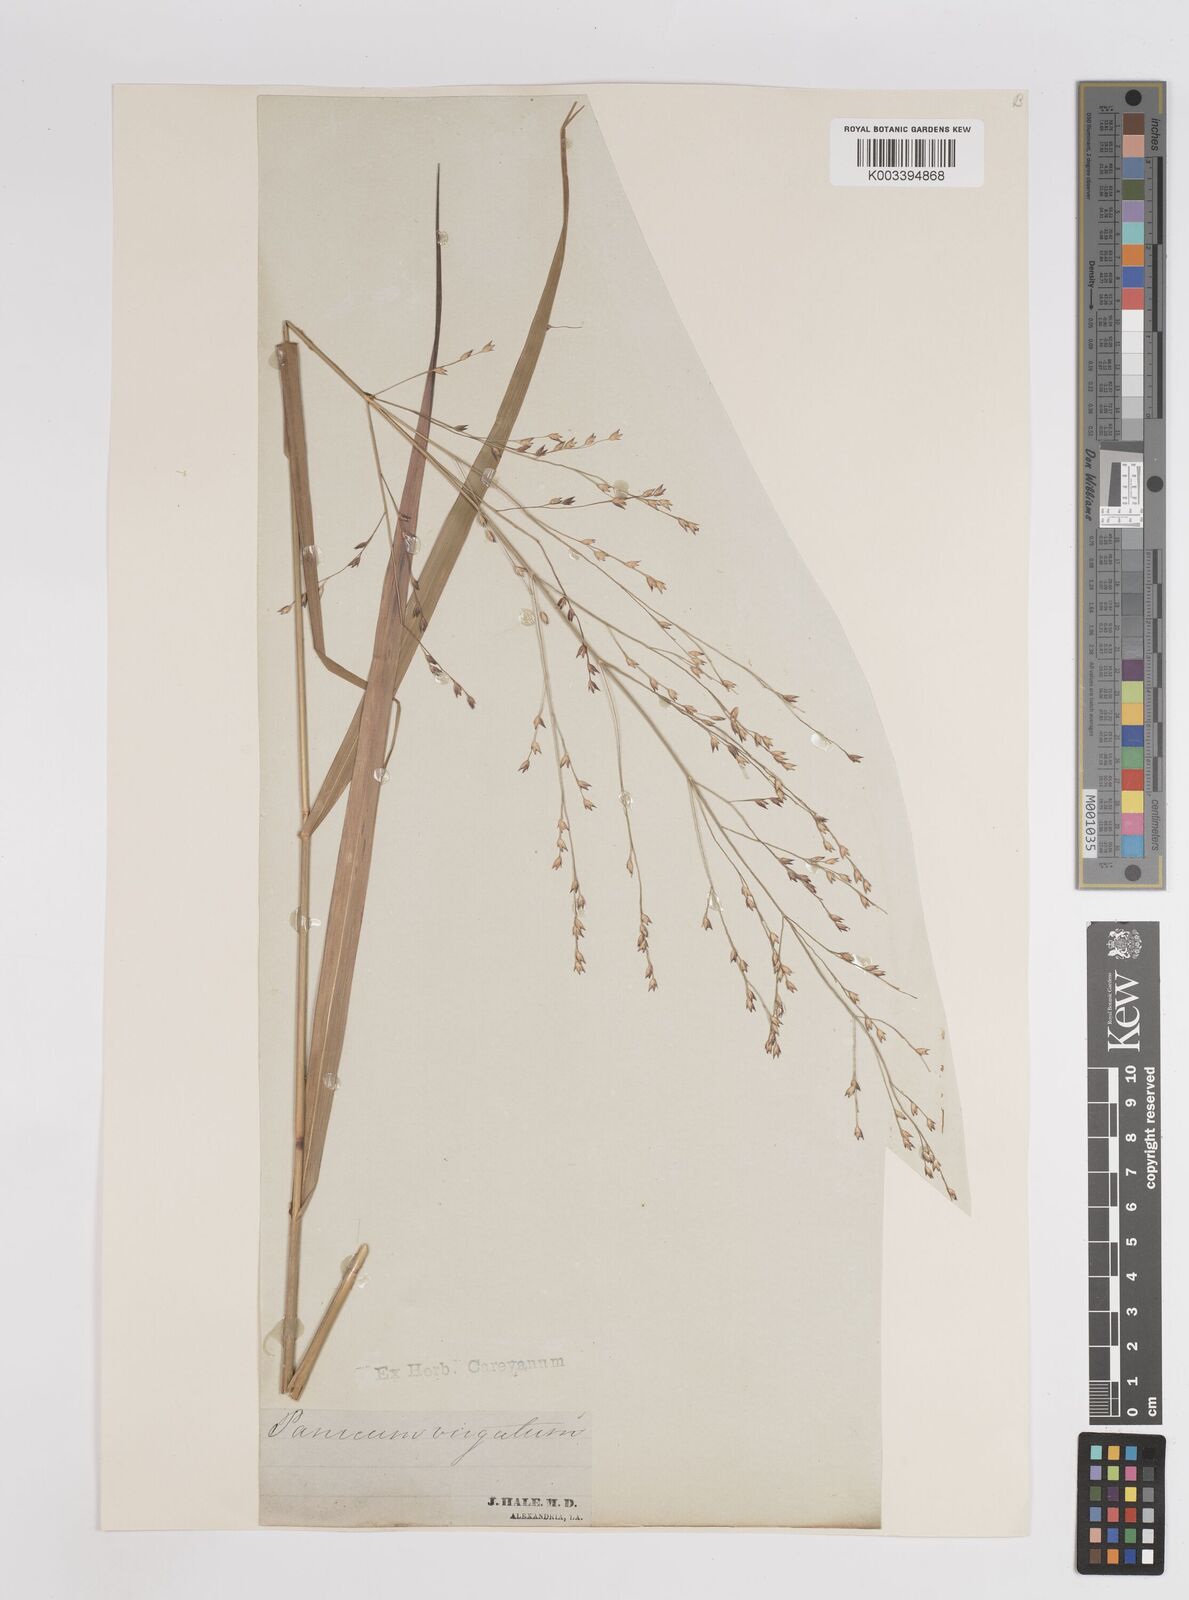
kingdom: Plantae
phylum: Tracheophyta
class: Liliopsida
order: Poales
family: Poaceae
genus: Panicum
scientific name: Panicum virgatum
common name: Switchgrass
